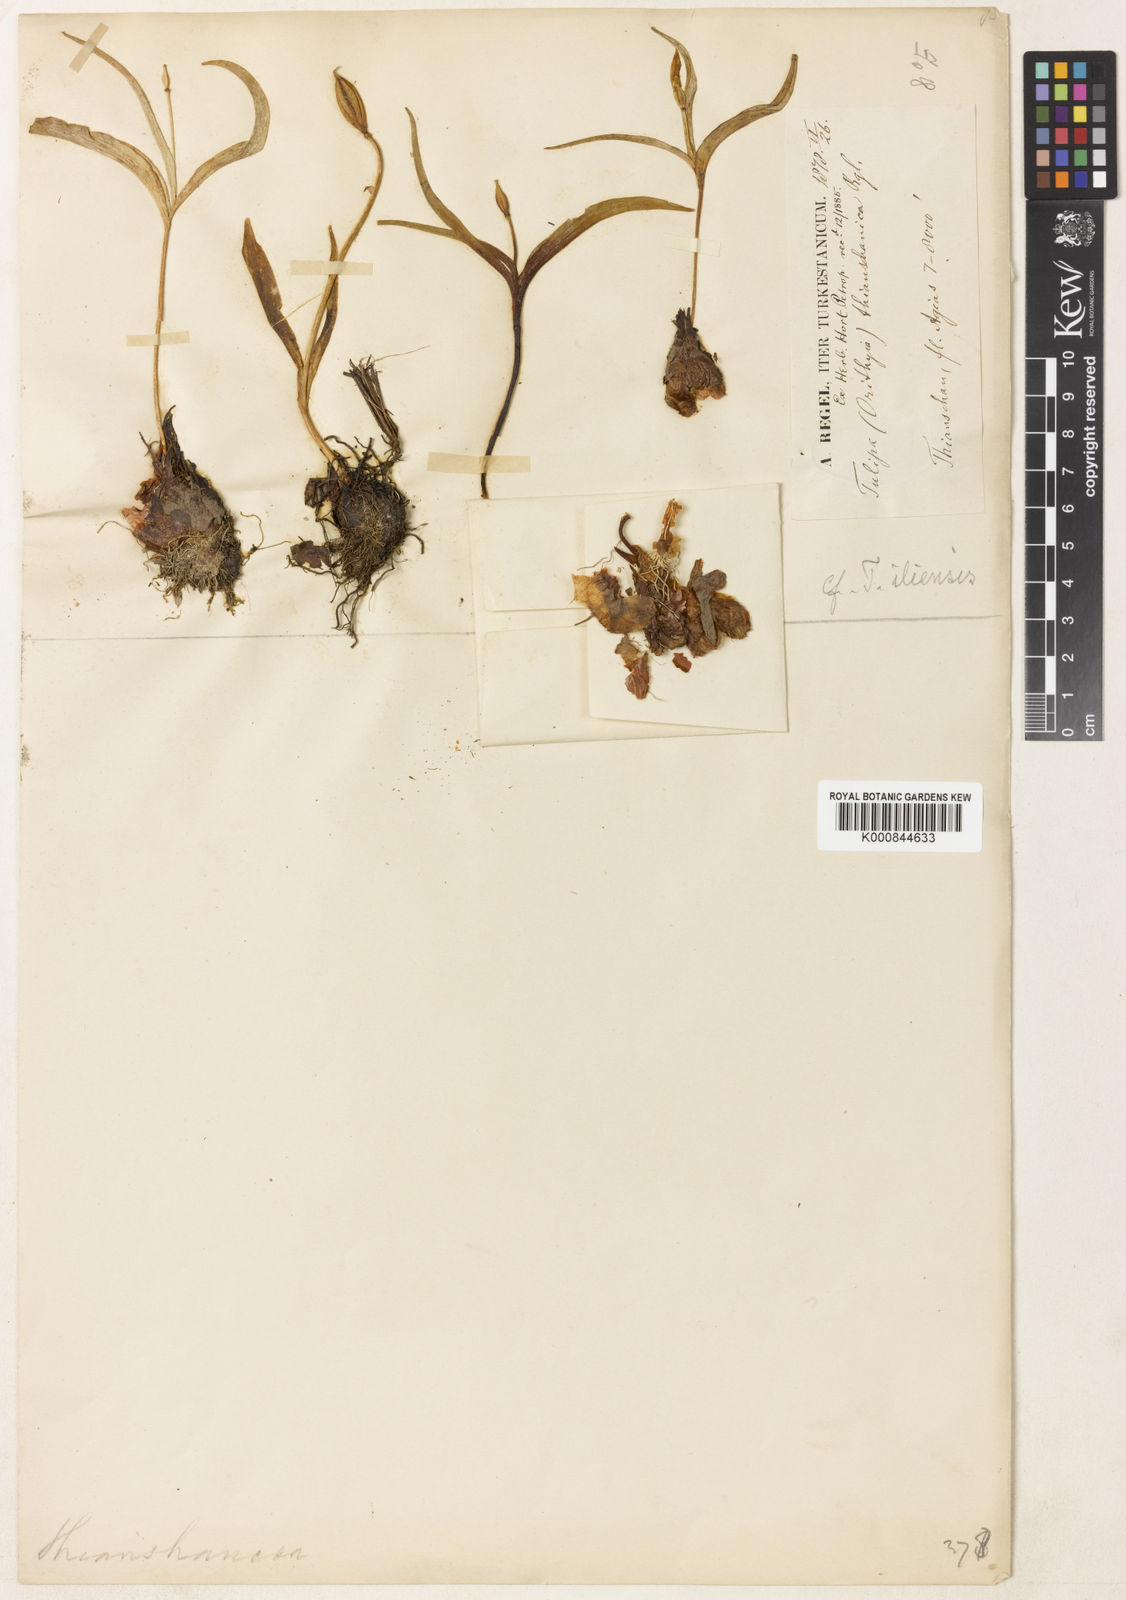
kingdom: Plantae
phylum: Tracheophyta
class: Liliopsida
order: Liliales
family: Liliaceae
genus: Tulipa
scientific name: Tulipa
